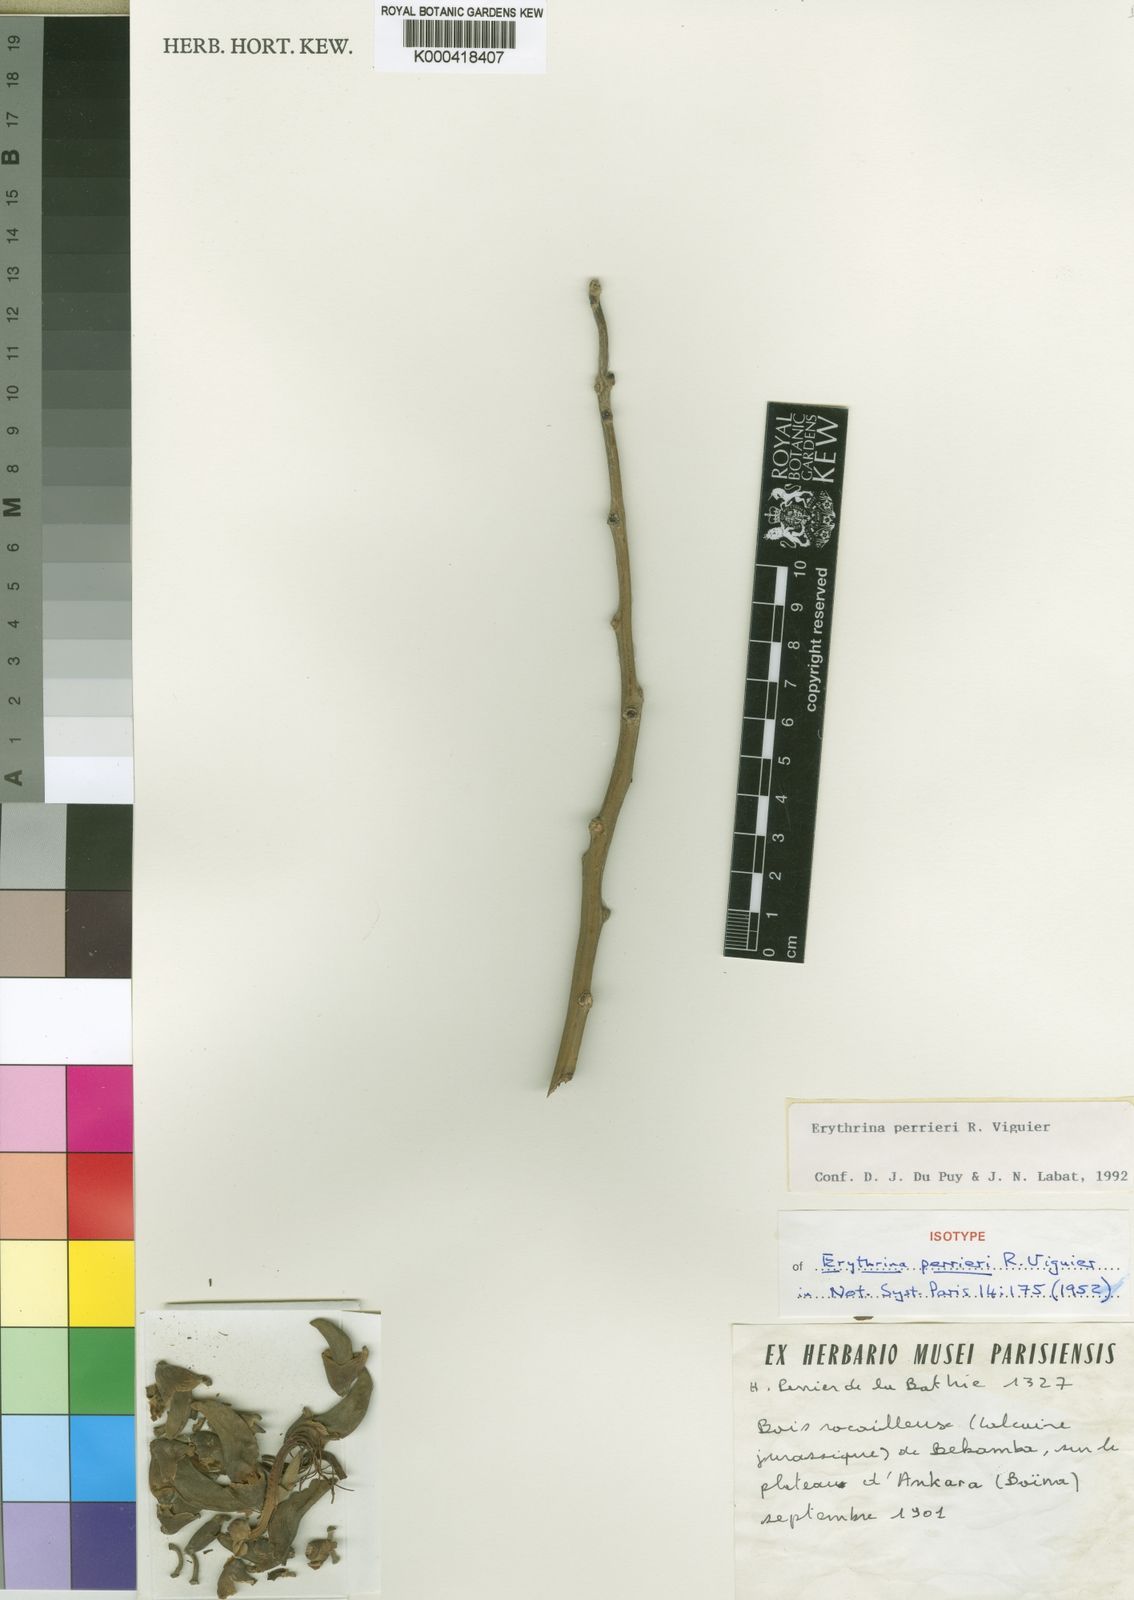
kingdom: Plantae
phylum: Tracheophyta
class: Magnoliopsida
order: Fabales
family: Fabaceae
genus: Erythrina
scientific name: Erythrina perrieri
